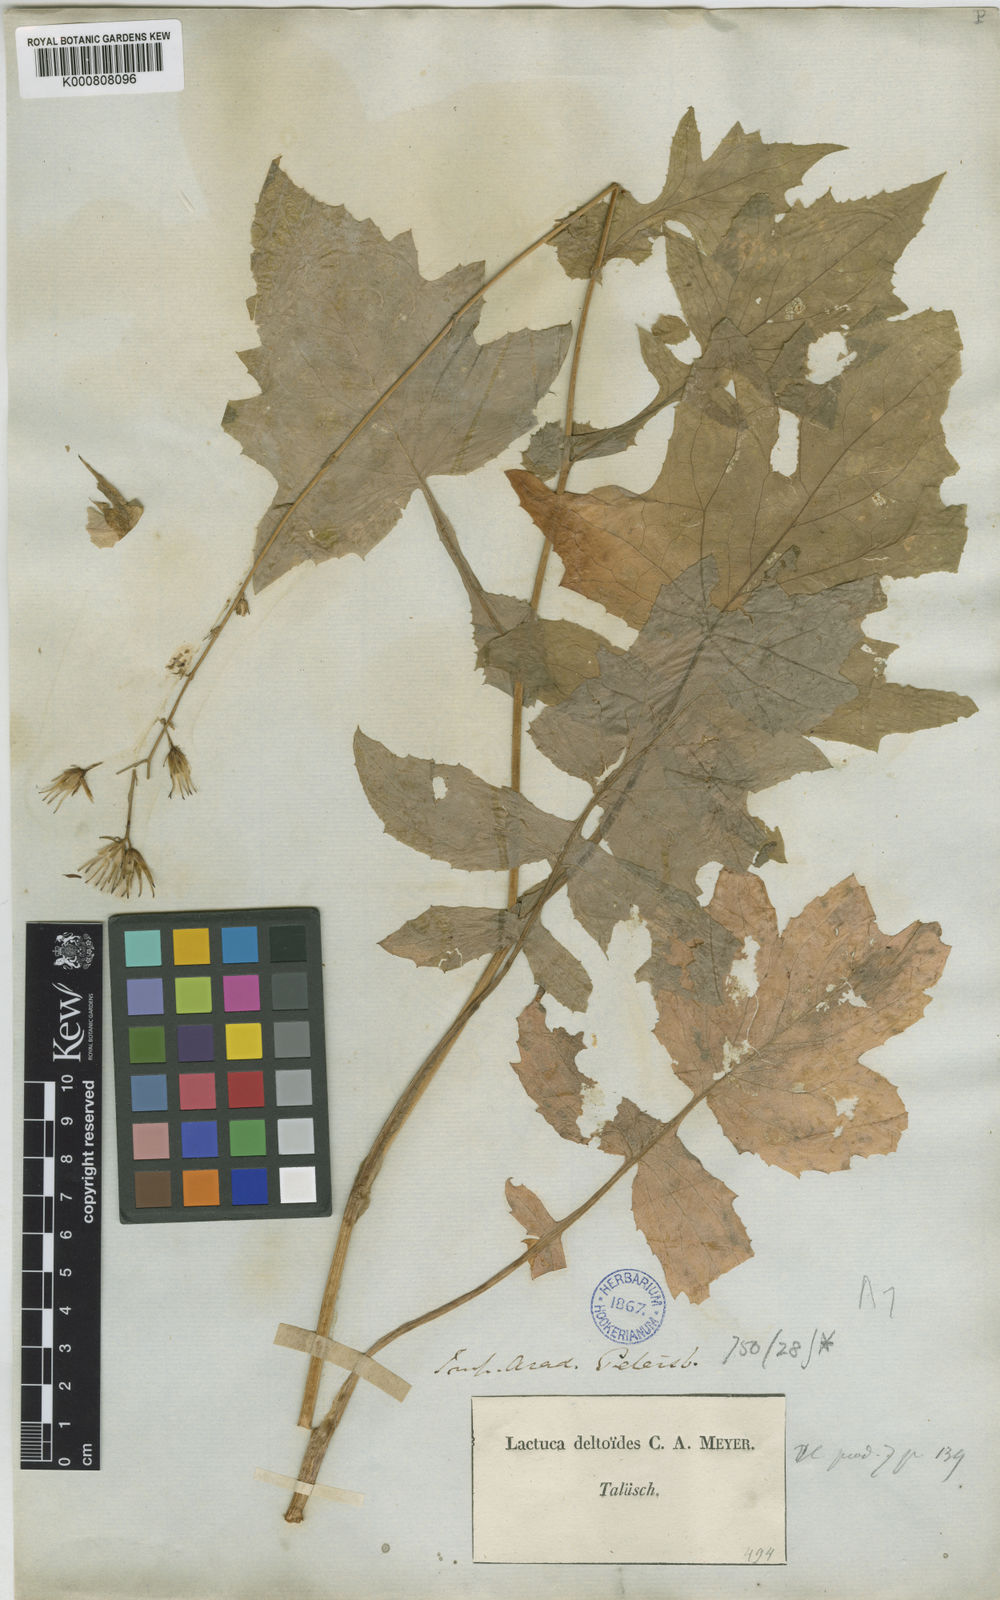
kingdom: Plantae
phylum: Tracheophyta
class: Magnoliopsida
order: Asterales
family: Asteraceae
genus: Lactuca
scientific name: Lactuca gorganica
